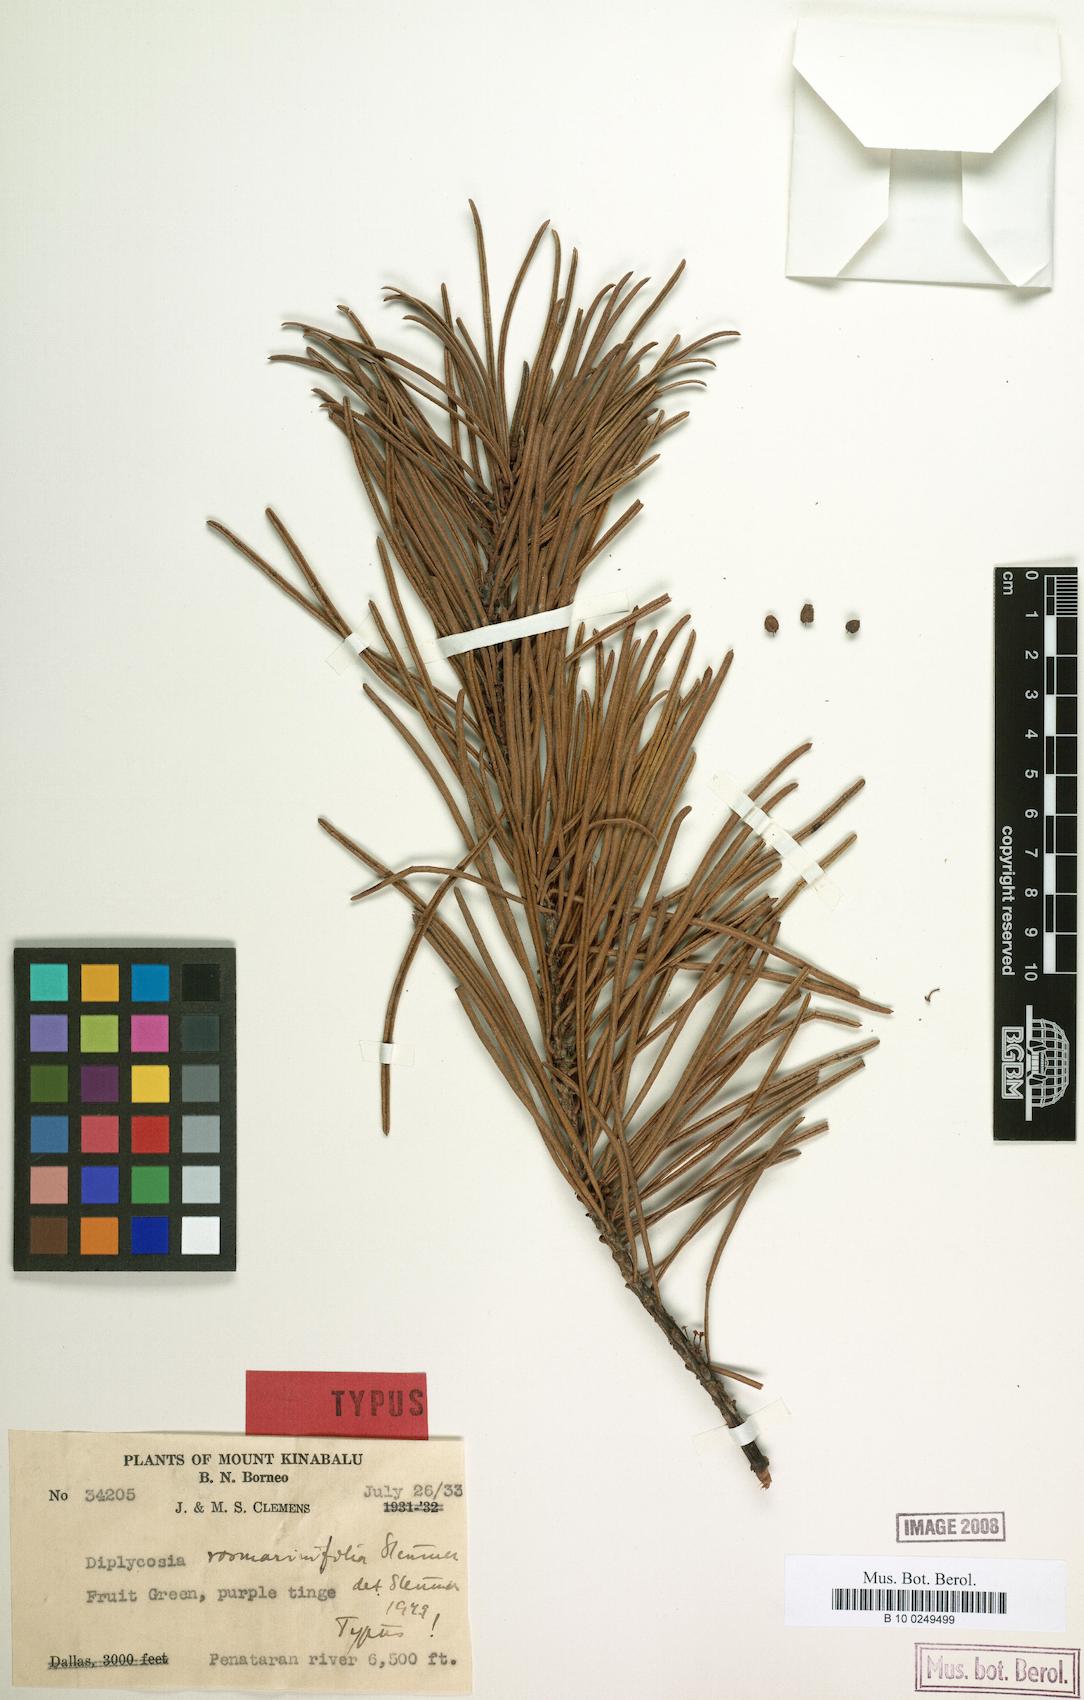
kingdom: Plantae
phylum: Tracheophyta
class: Magnoliopsida
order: Ericales
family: Ericaceae
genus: Gaultheria
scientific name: Gaultheria rosmarinifolia
